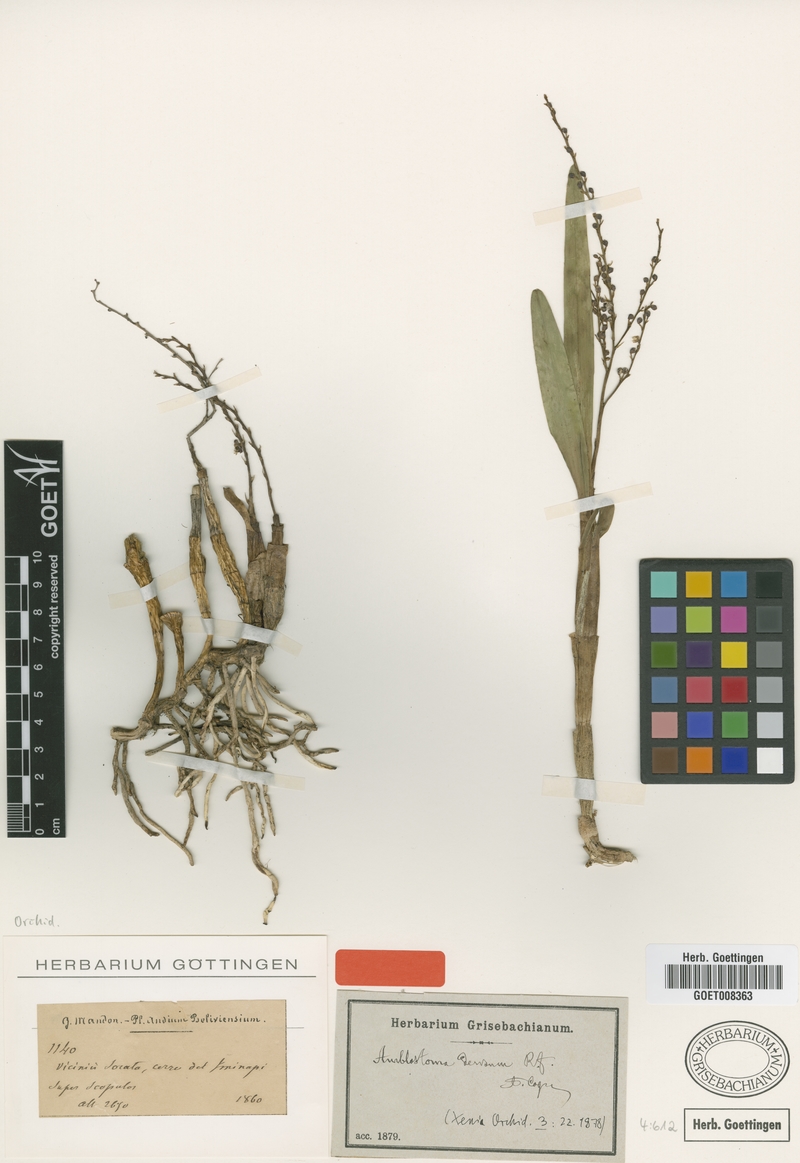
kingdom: Plantae
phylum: Tracheophyta
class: Liliopsida
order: Asparagales
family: Orchidaceae
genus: Epidendrum
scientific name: Epidendrum tridactylum
